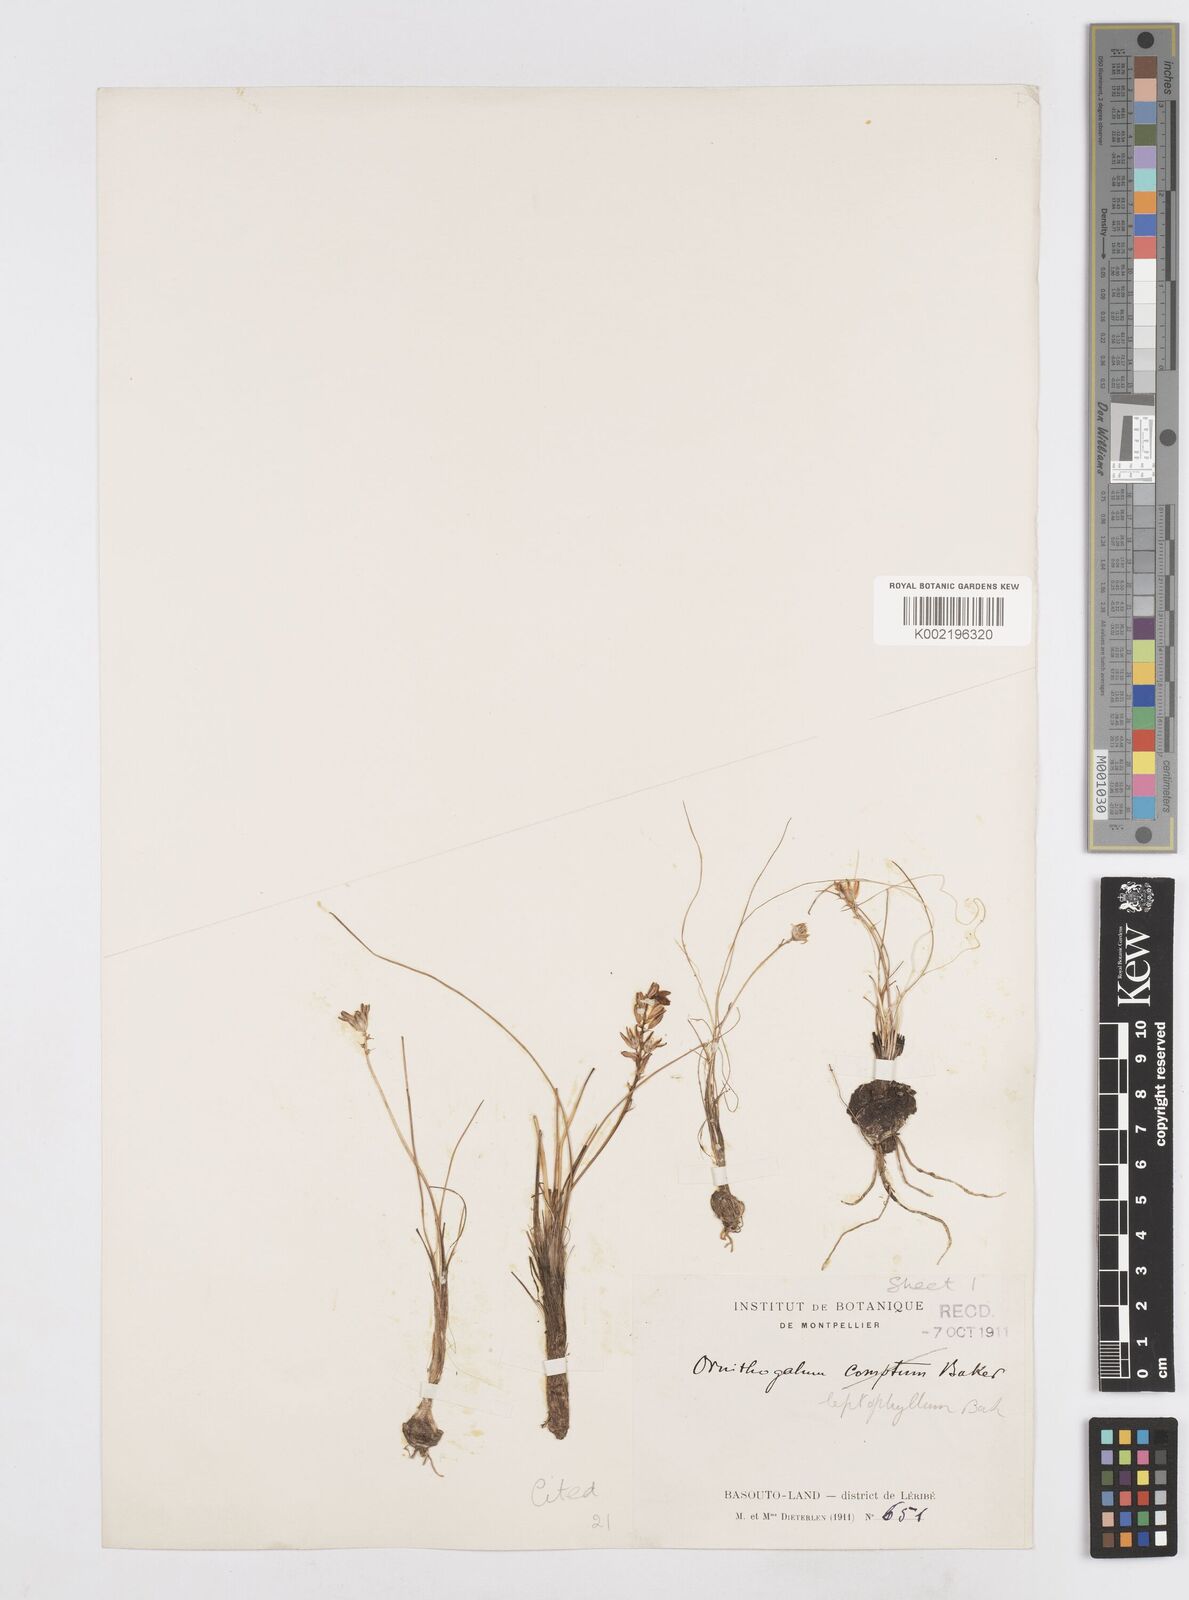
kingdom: Plantae
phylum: Tracheophyta
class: Liliopsida
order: Asparagales
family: Asparagaceae
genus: Ornithogalum
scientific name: Ornithogalum juncifolium
